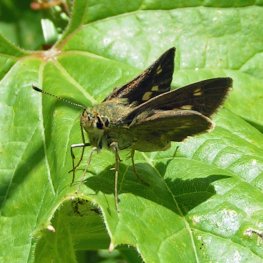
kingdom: Animalia
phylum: Arthropoda
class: Insecta
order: Lepidoptera
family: Hesperiidae
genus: Polites
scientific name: Polites egeremet
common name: Northern Broken-Dash
